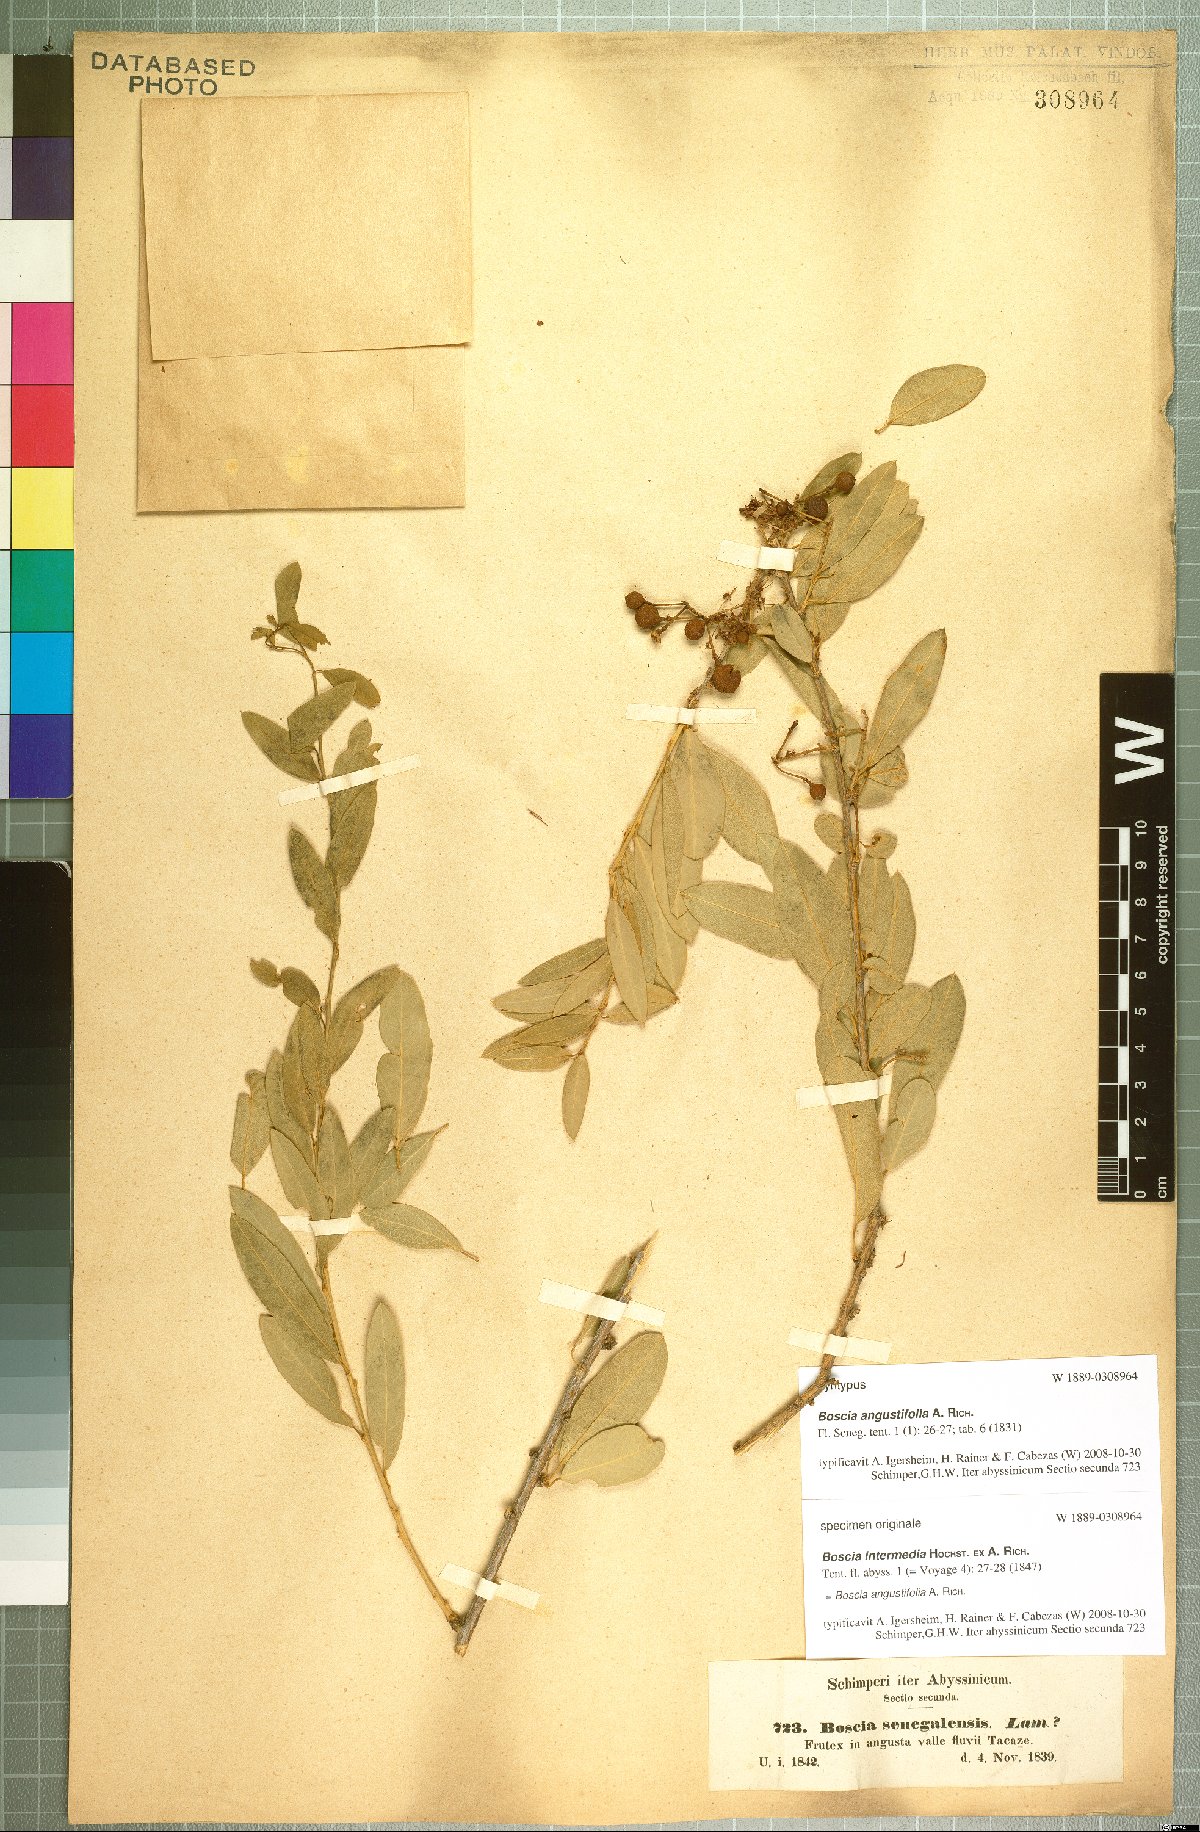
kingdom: Plantae
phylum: Tracheophyta
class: Magnoliopsida
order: Brassicales
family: Capparaceae
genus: Boscia
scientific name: Boscia angustifolia
